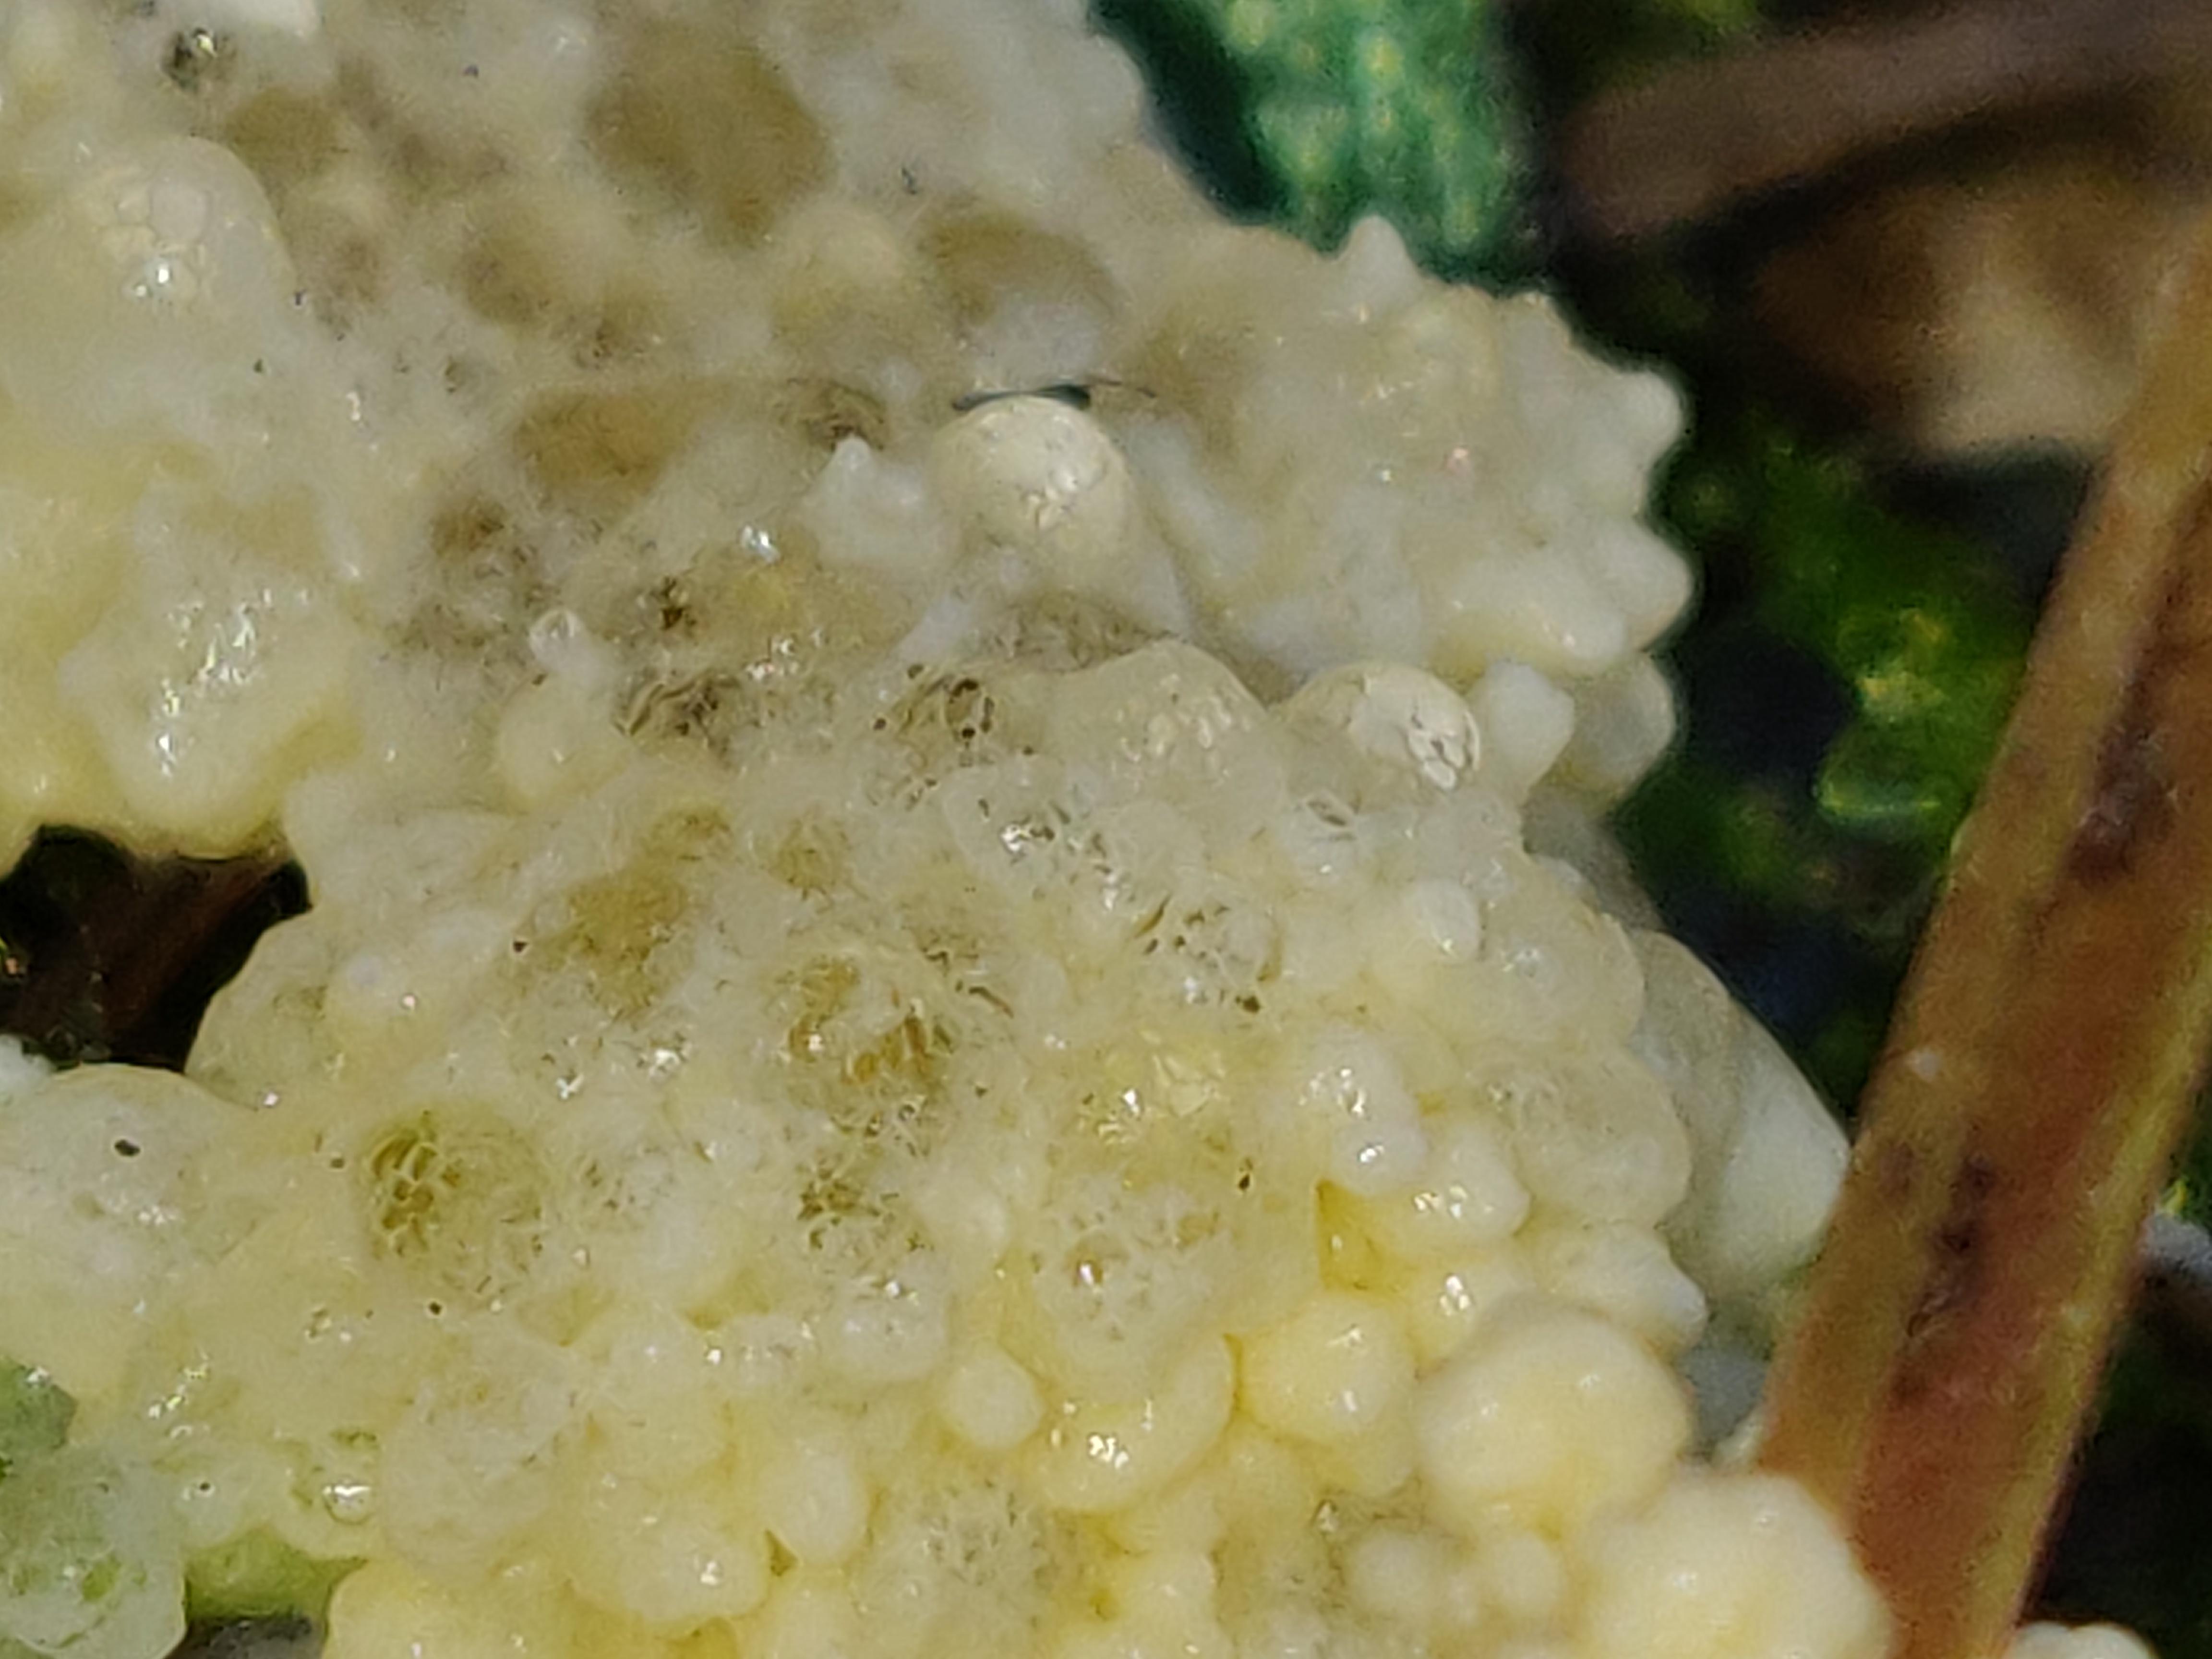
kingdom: Protozoa
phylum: Mycetozoa
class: Myxomycetes
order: Physarales
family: Physaraceae
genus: Didymium
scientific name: Didymium
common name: urteskum
